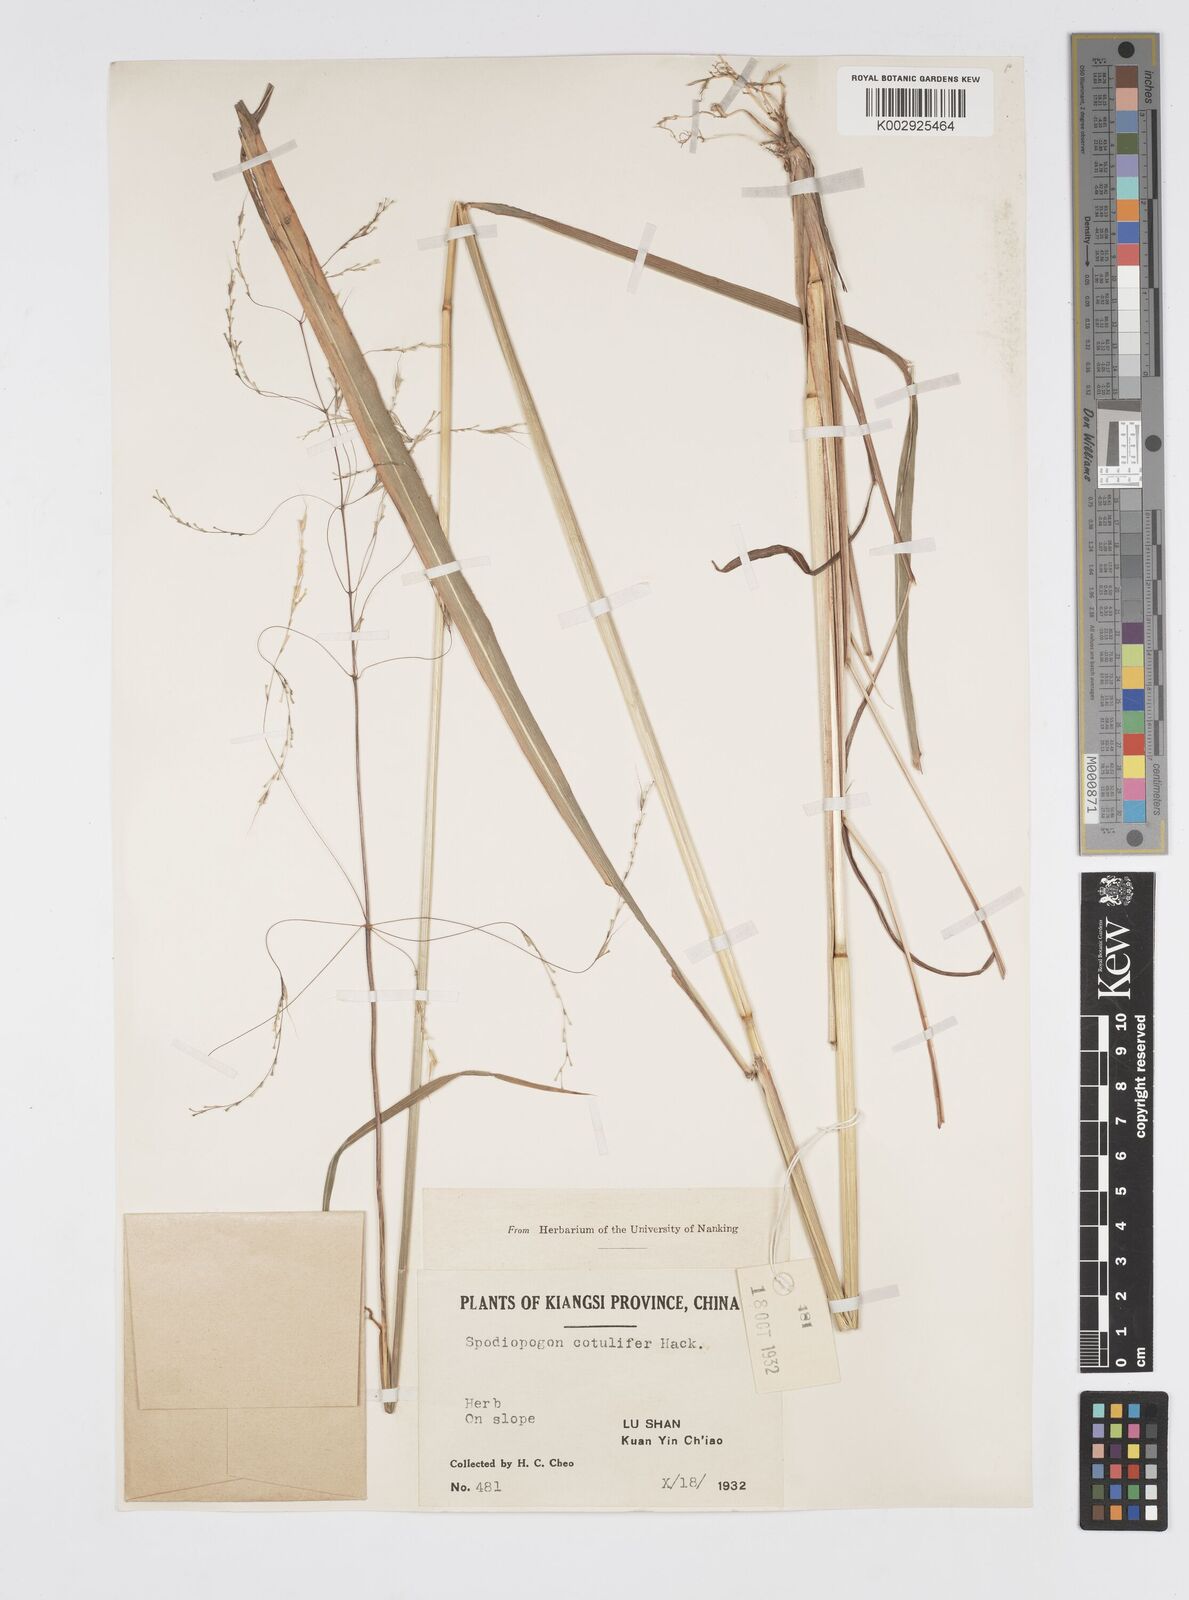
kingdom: Plantae
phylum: Tracheophyta
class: Liliopsida
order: Poales
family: Poaceae
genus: Spodiopogon
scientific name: Spodiopogon cotulifer
